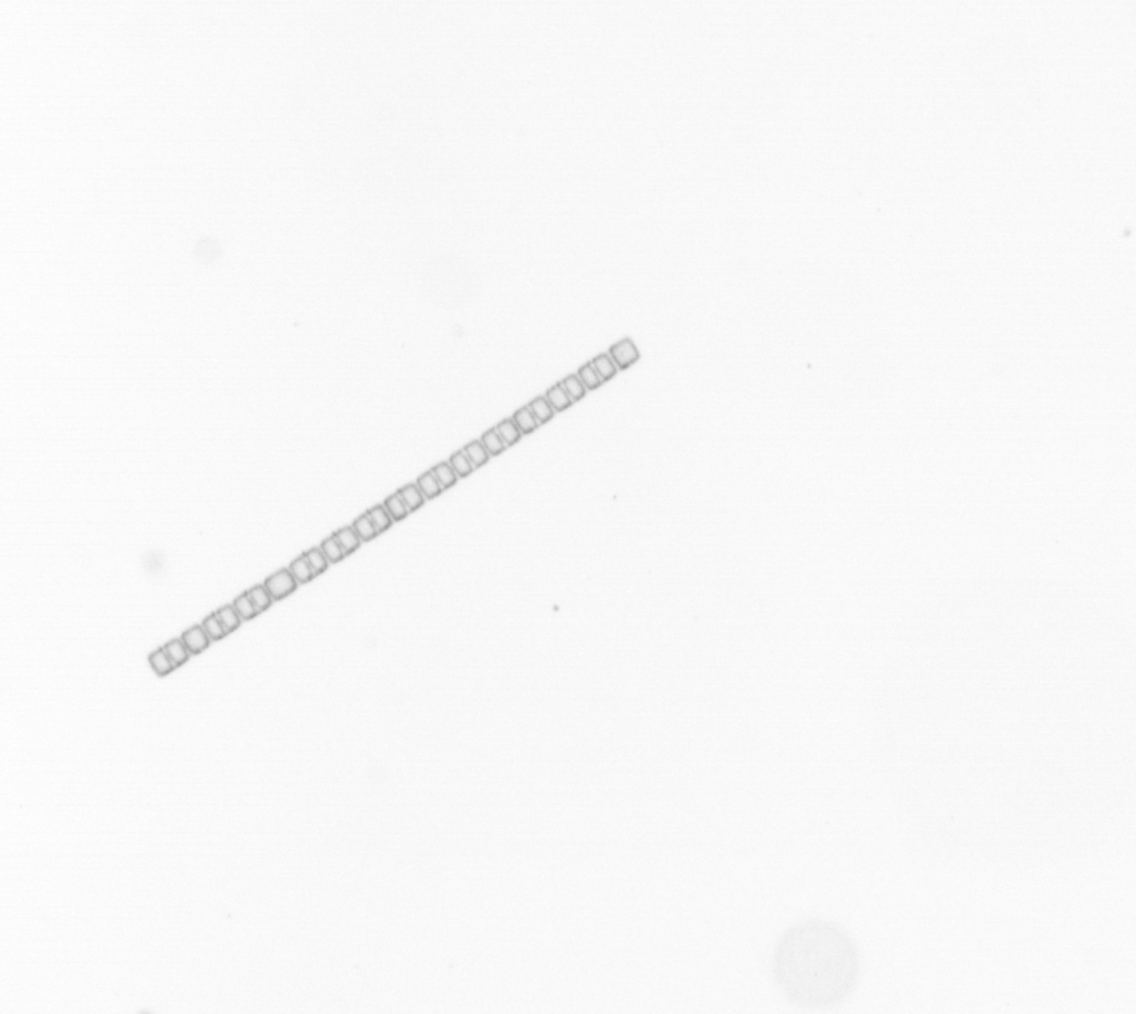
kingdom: Chromista
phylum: Ochrophyta
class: Bacillariophyceae
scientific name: Bacillariophyceae
